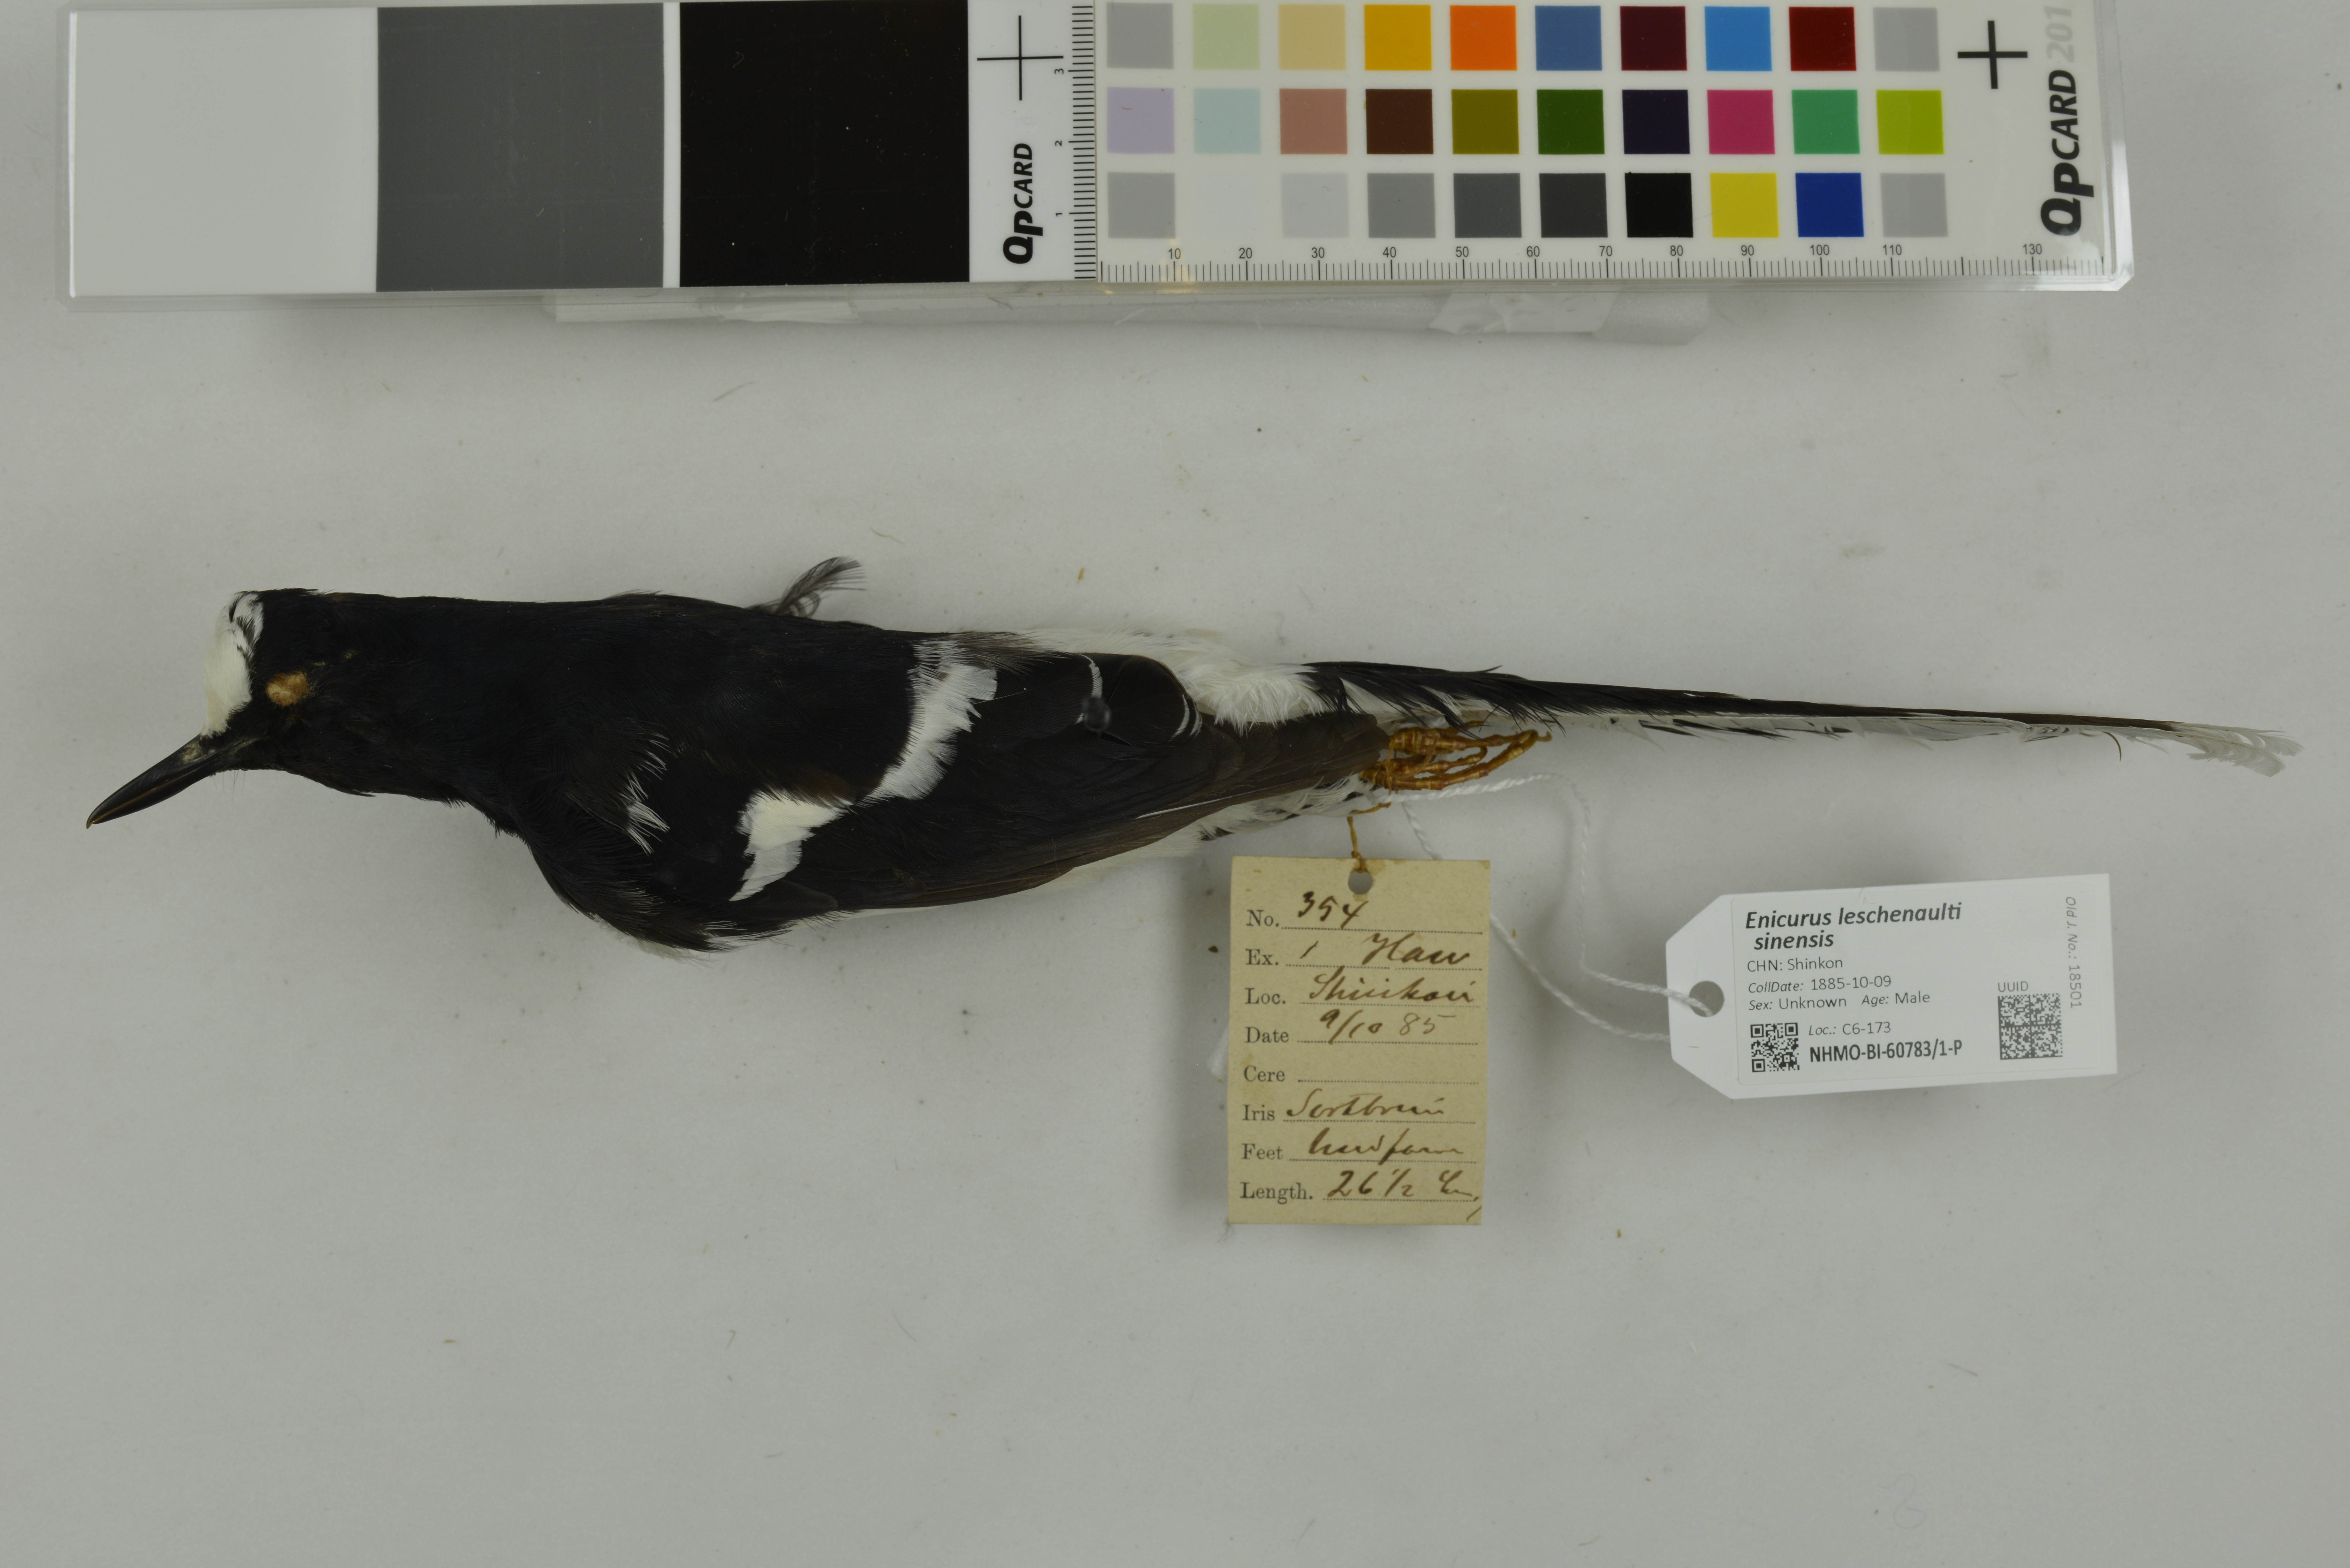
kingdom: Animalia
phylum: Chordata
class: Aves
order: Passeriformes
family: Muscicapidae
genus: Enicurus
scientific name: Enicurus leschenaulti
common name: White-crowned forktail
